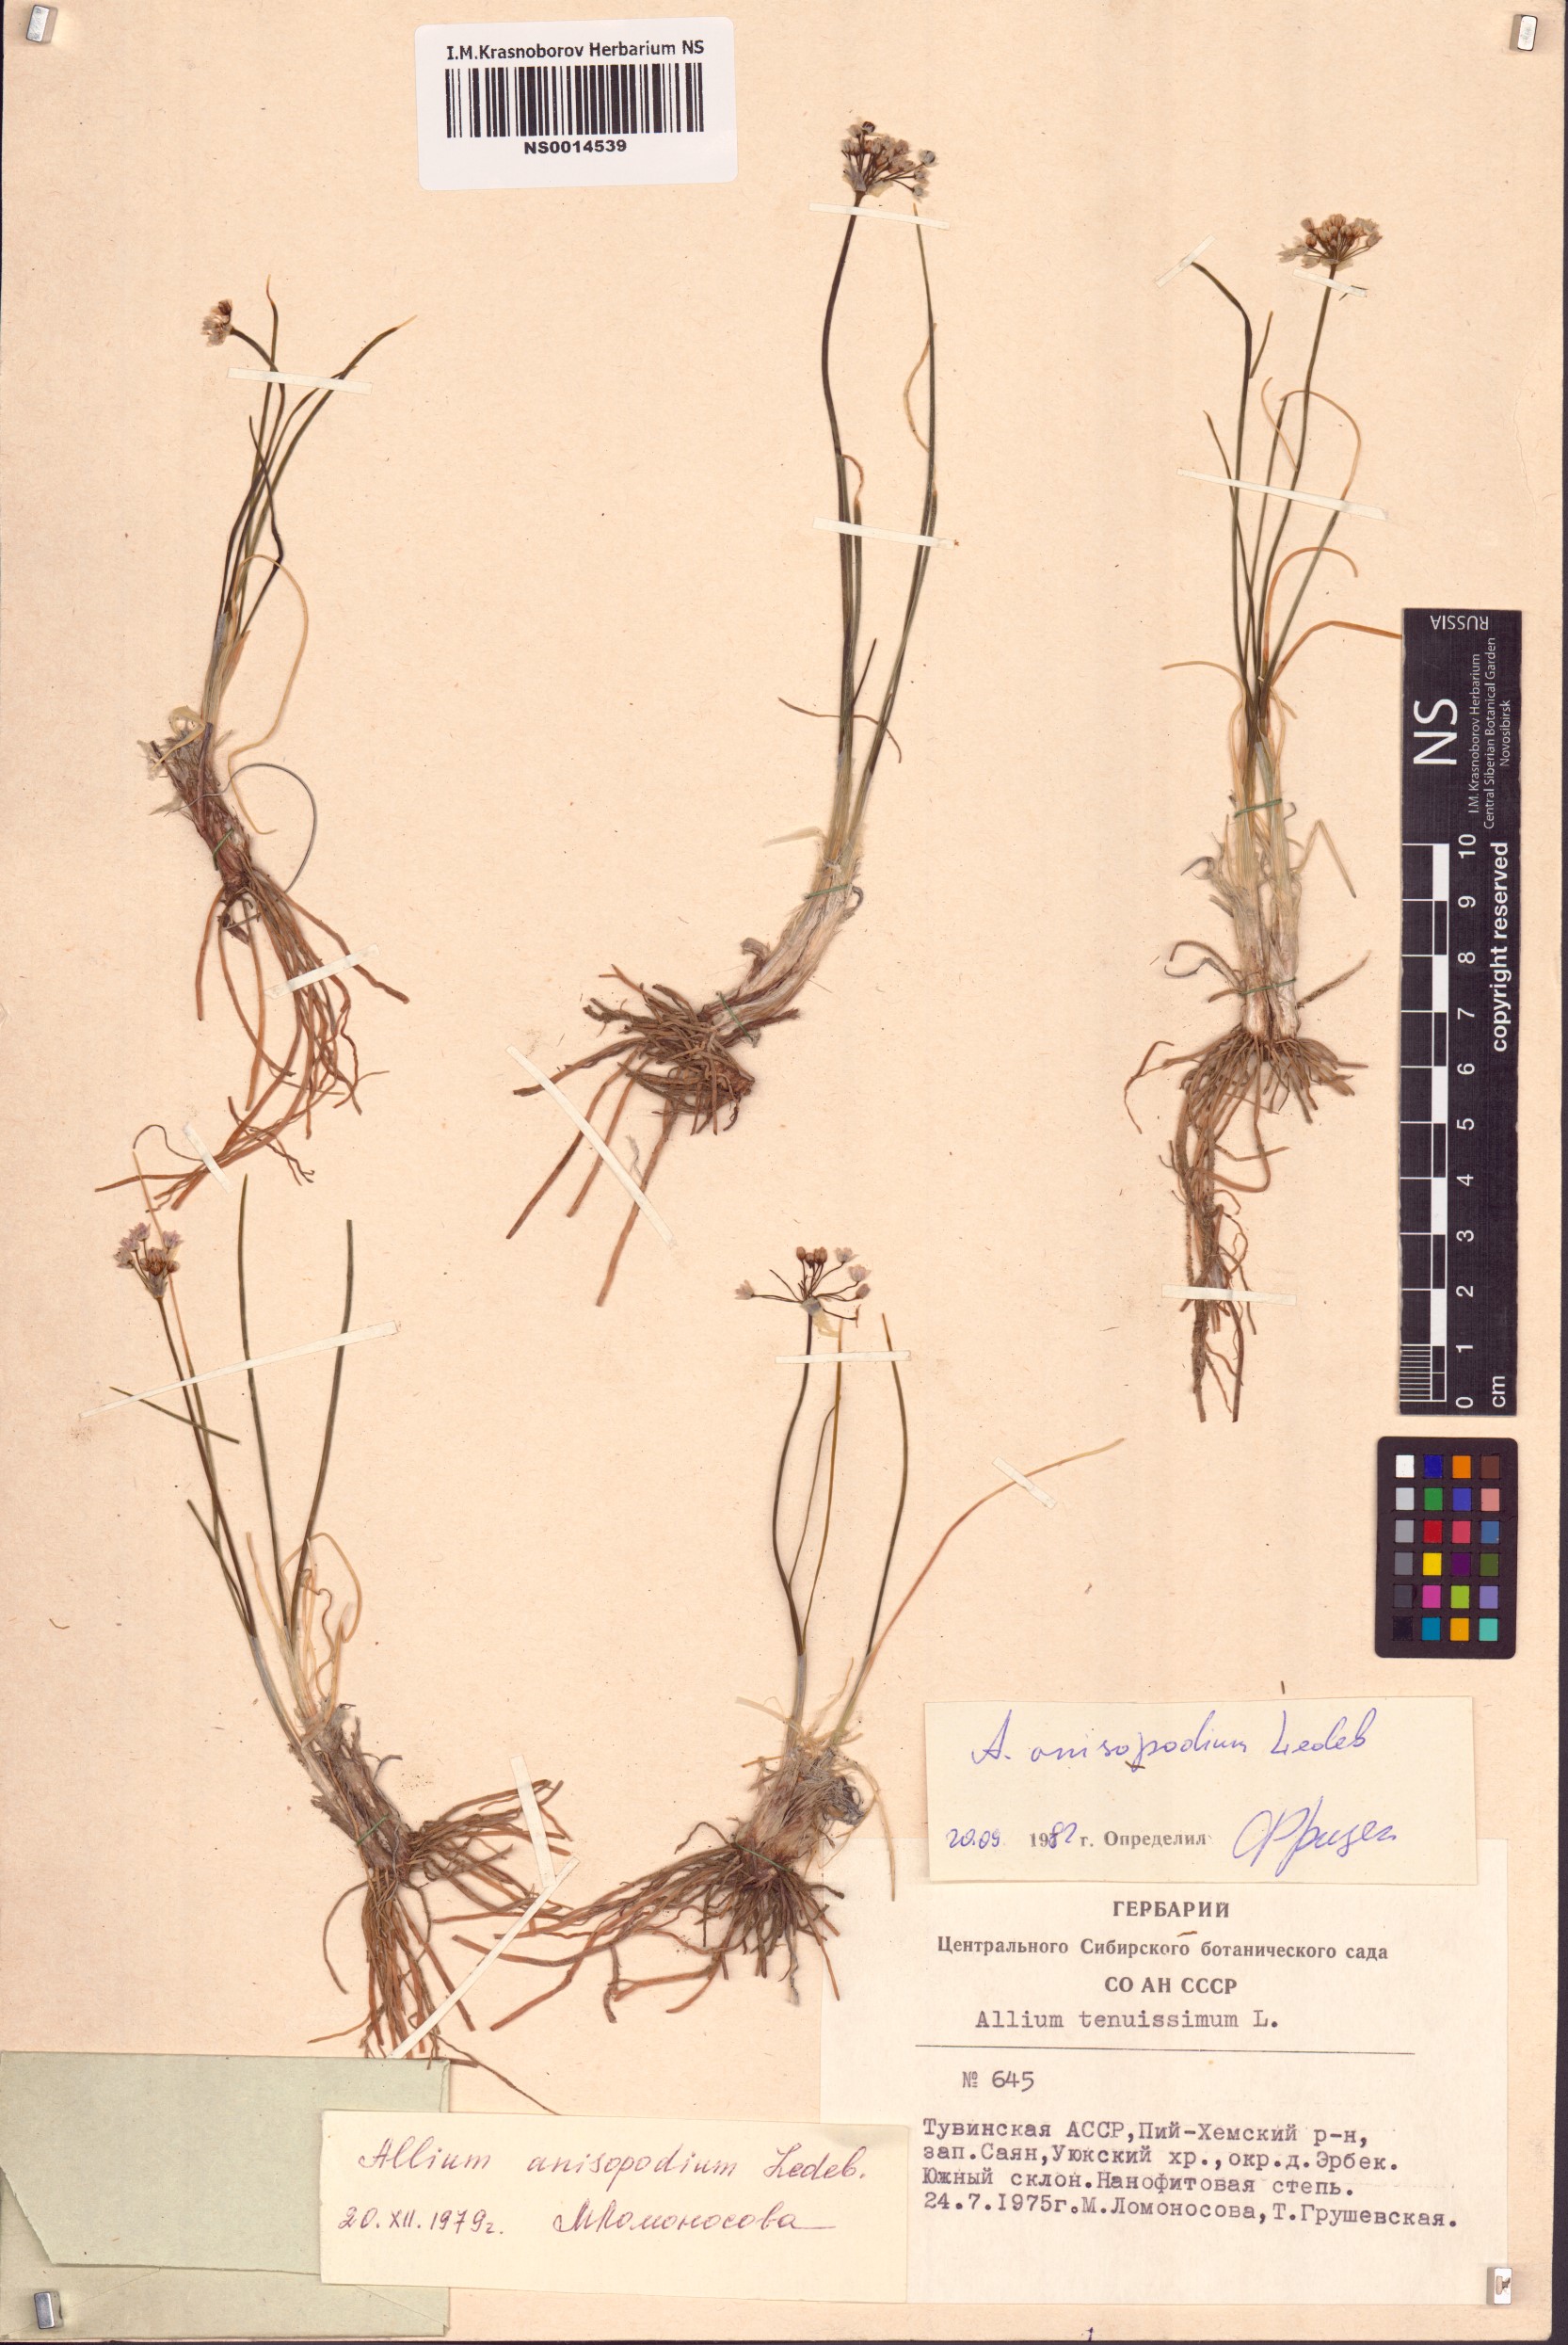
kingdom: Plantae
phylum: Tracheophyta
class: Liliopsida
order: Asparagales
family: Amaryllidaceae
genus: Allium
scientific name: Allium anisopodium
